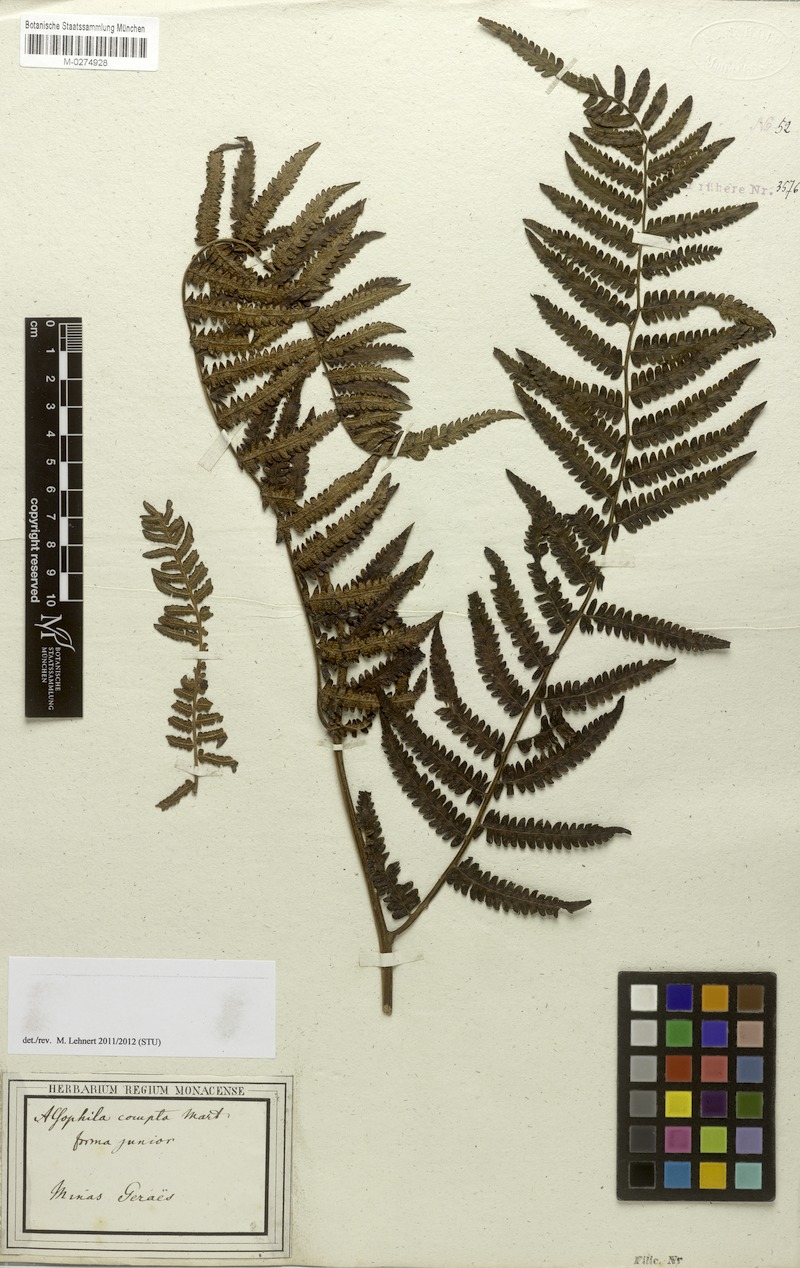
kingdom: Plantae
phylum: Tracheophyta
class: Polypodiopsida
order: Cyatheales
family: Cyatheaceae
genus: Cyathea
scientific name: Cyathea atrovirens
